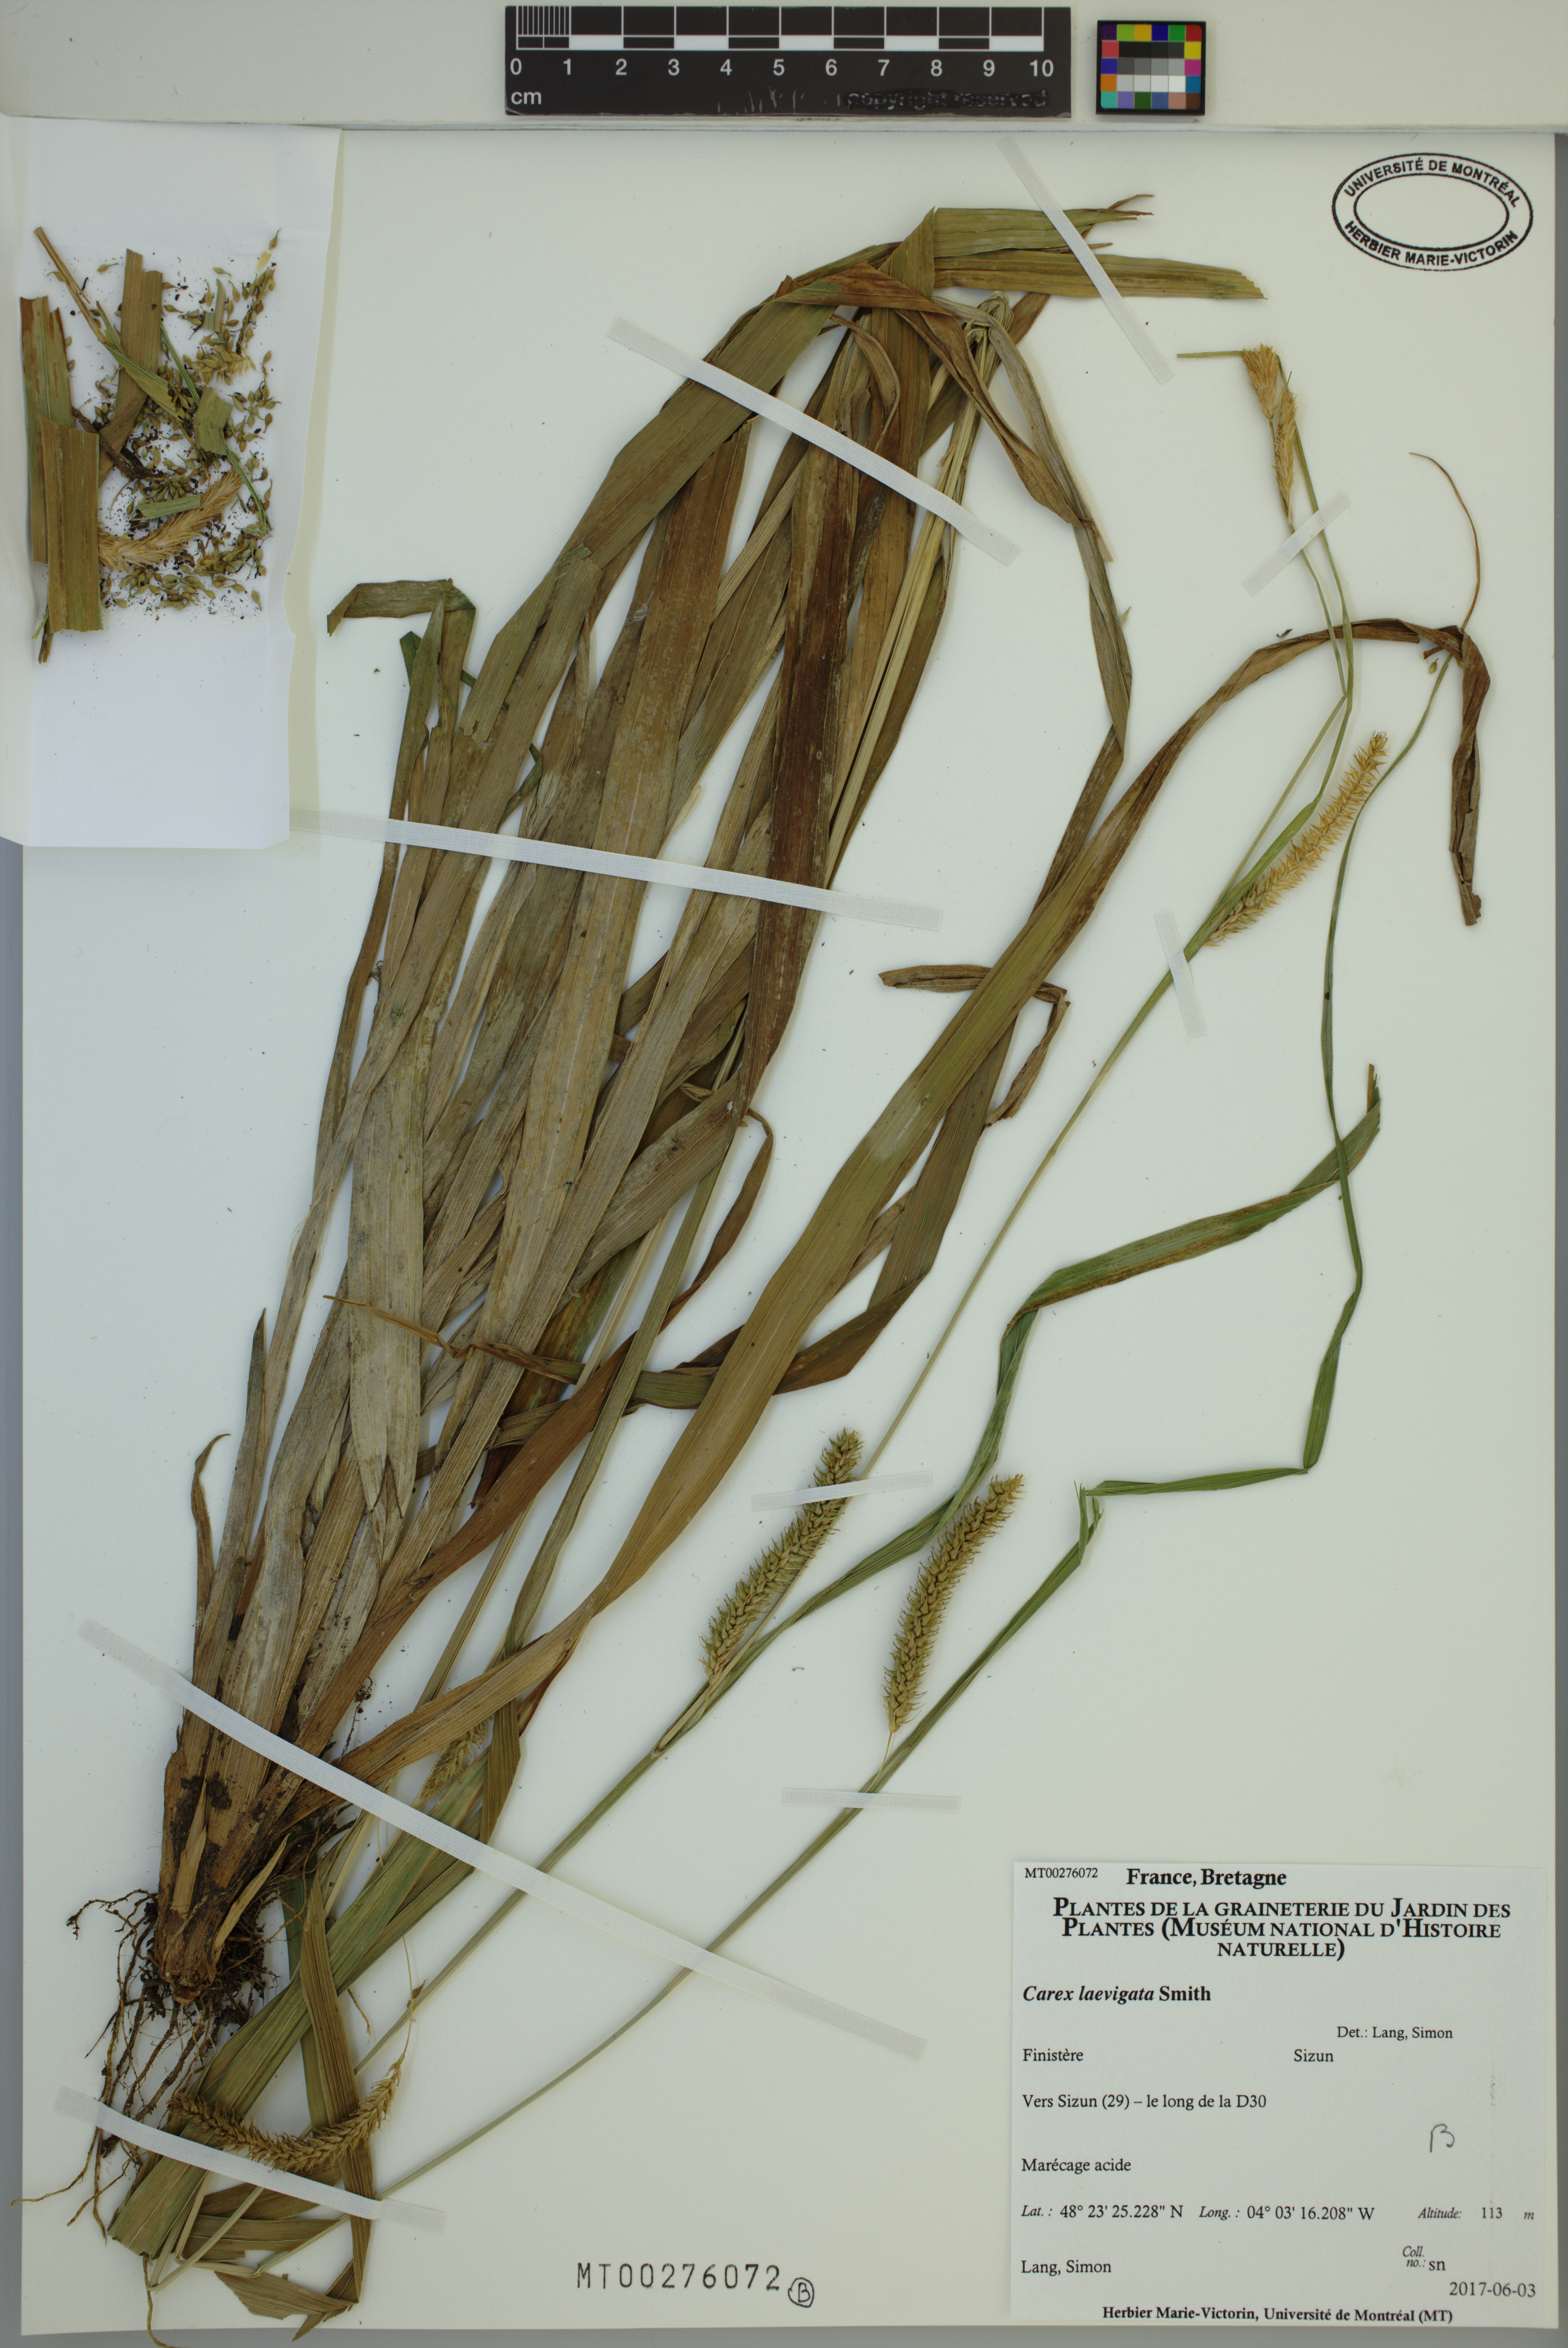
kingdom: Plantae
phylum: Tracheophyta
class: Liliopsida
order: Poales
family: Cyperaceae
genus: Carex
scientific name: Carex laevigata
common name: Smooth-stalked sedge
